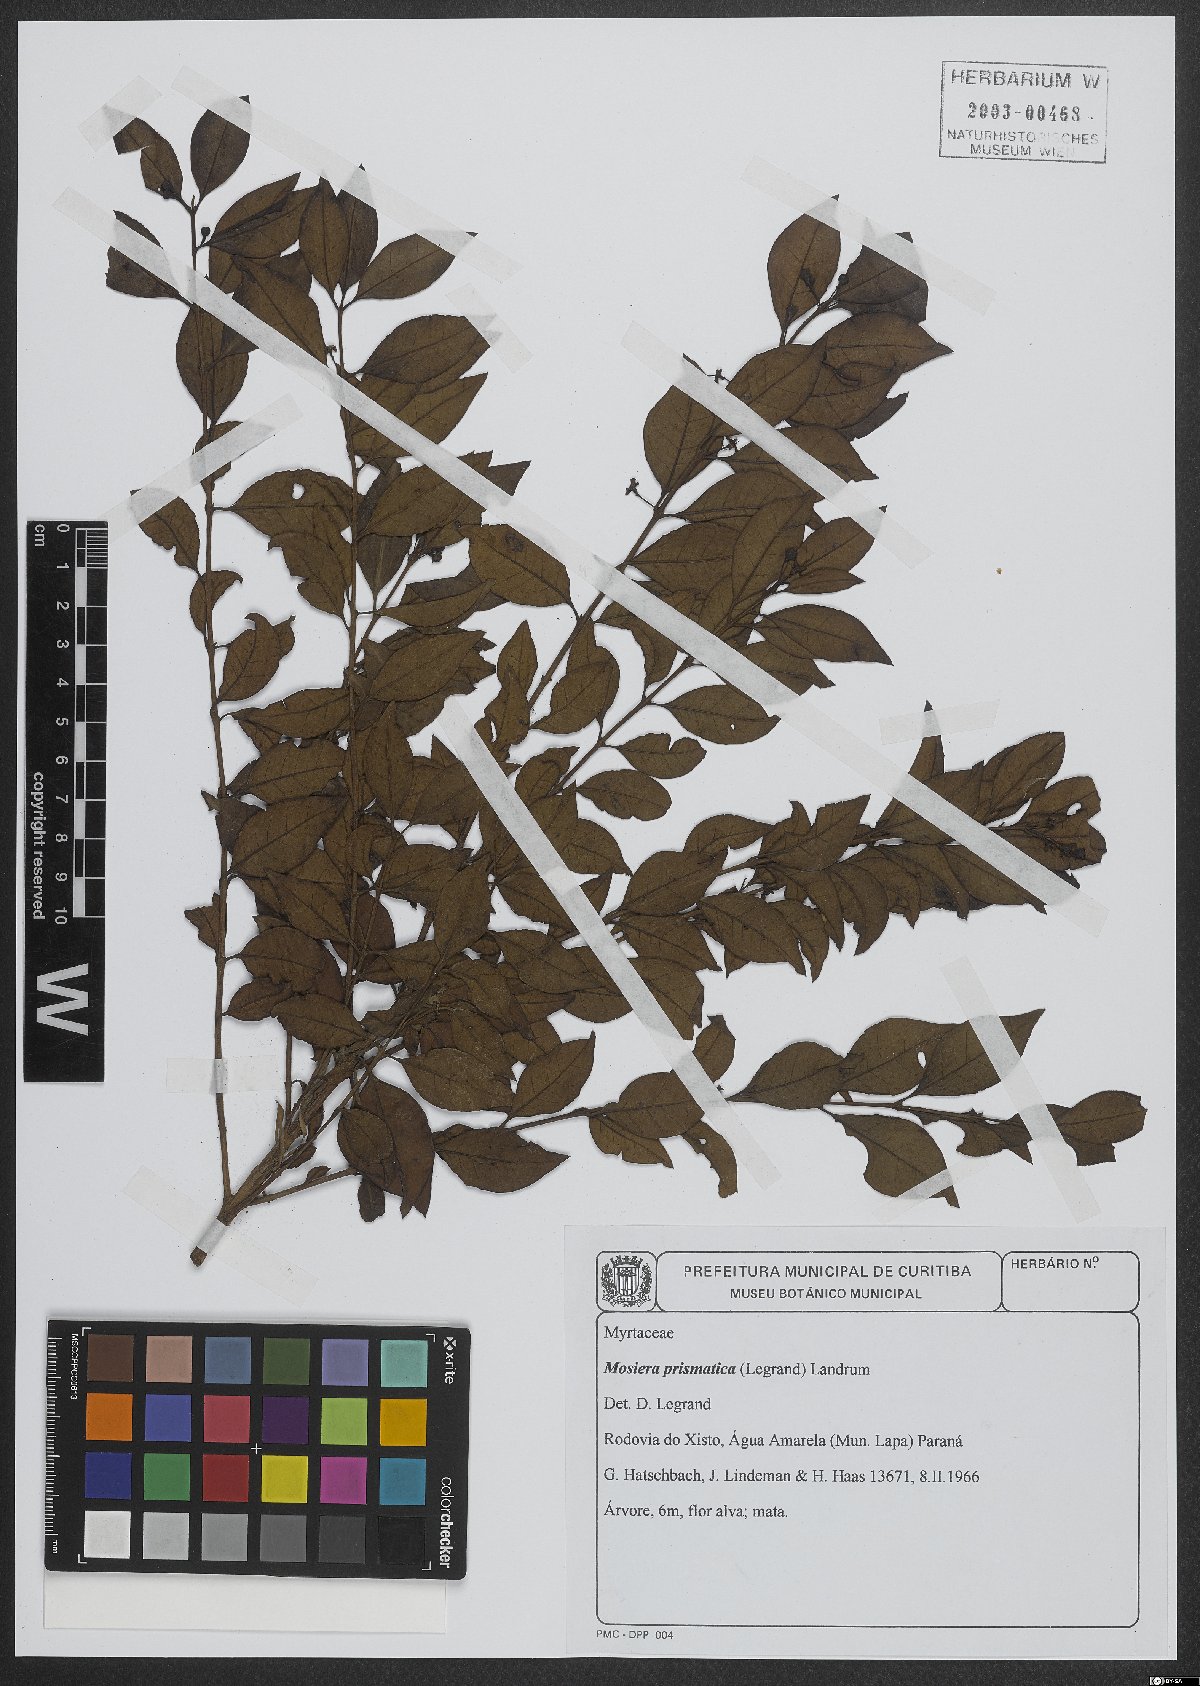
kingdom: Plantae
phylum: Tracheophyta
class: Magnoliopsida
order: Myrtales
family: Myrtaceae
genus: Curitiba
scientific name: Curitiba prismatica
